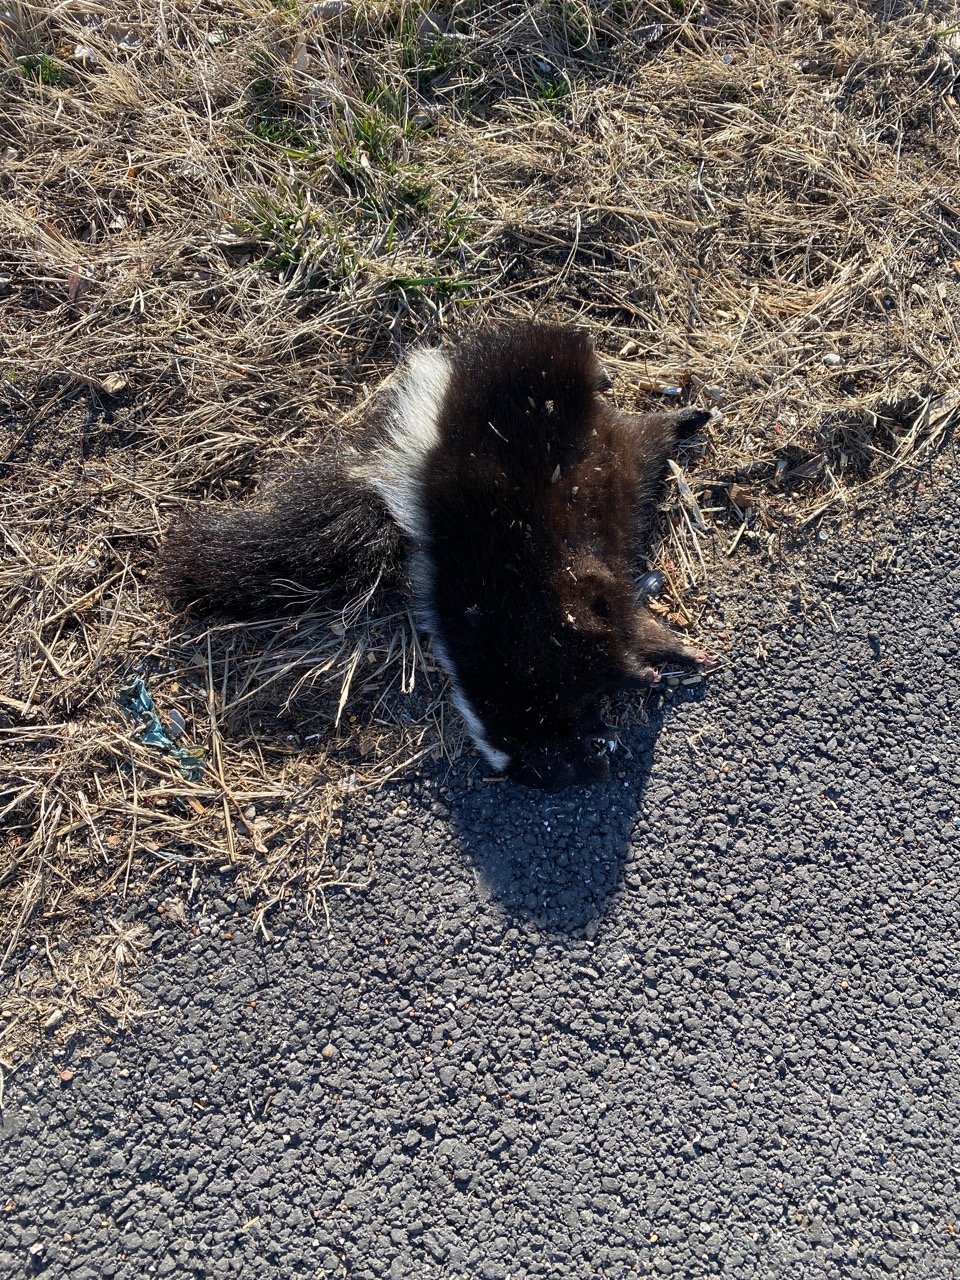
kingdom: Animalia
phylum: Chordata
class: Mammalia
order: Carnivora
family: Mephitidae
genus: Mephitis
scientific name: Mephitis mephitis
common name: Striped skunk
